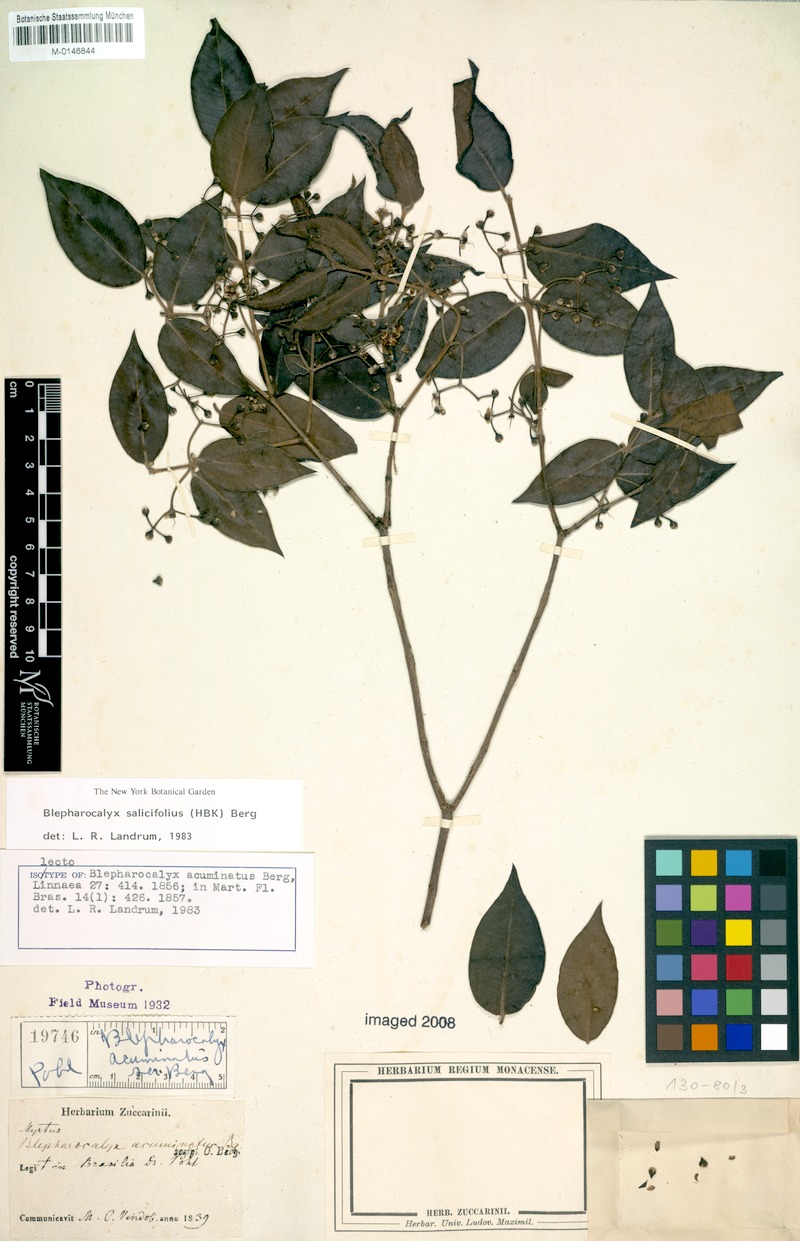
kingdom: Plantae
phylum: Tracheophyta
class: Magnoliopsida
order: Myrtales
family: Myrtaceae
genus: Blepharocalyx
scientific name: Blepharocalyx salicifolius
